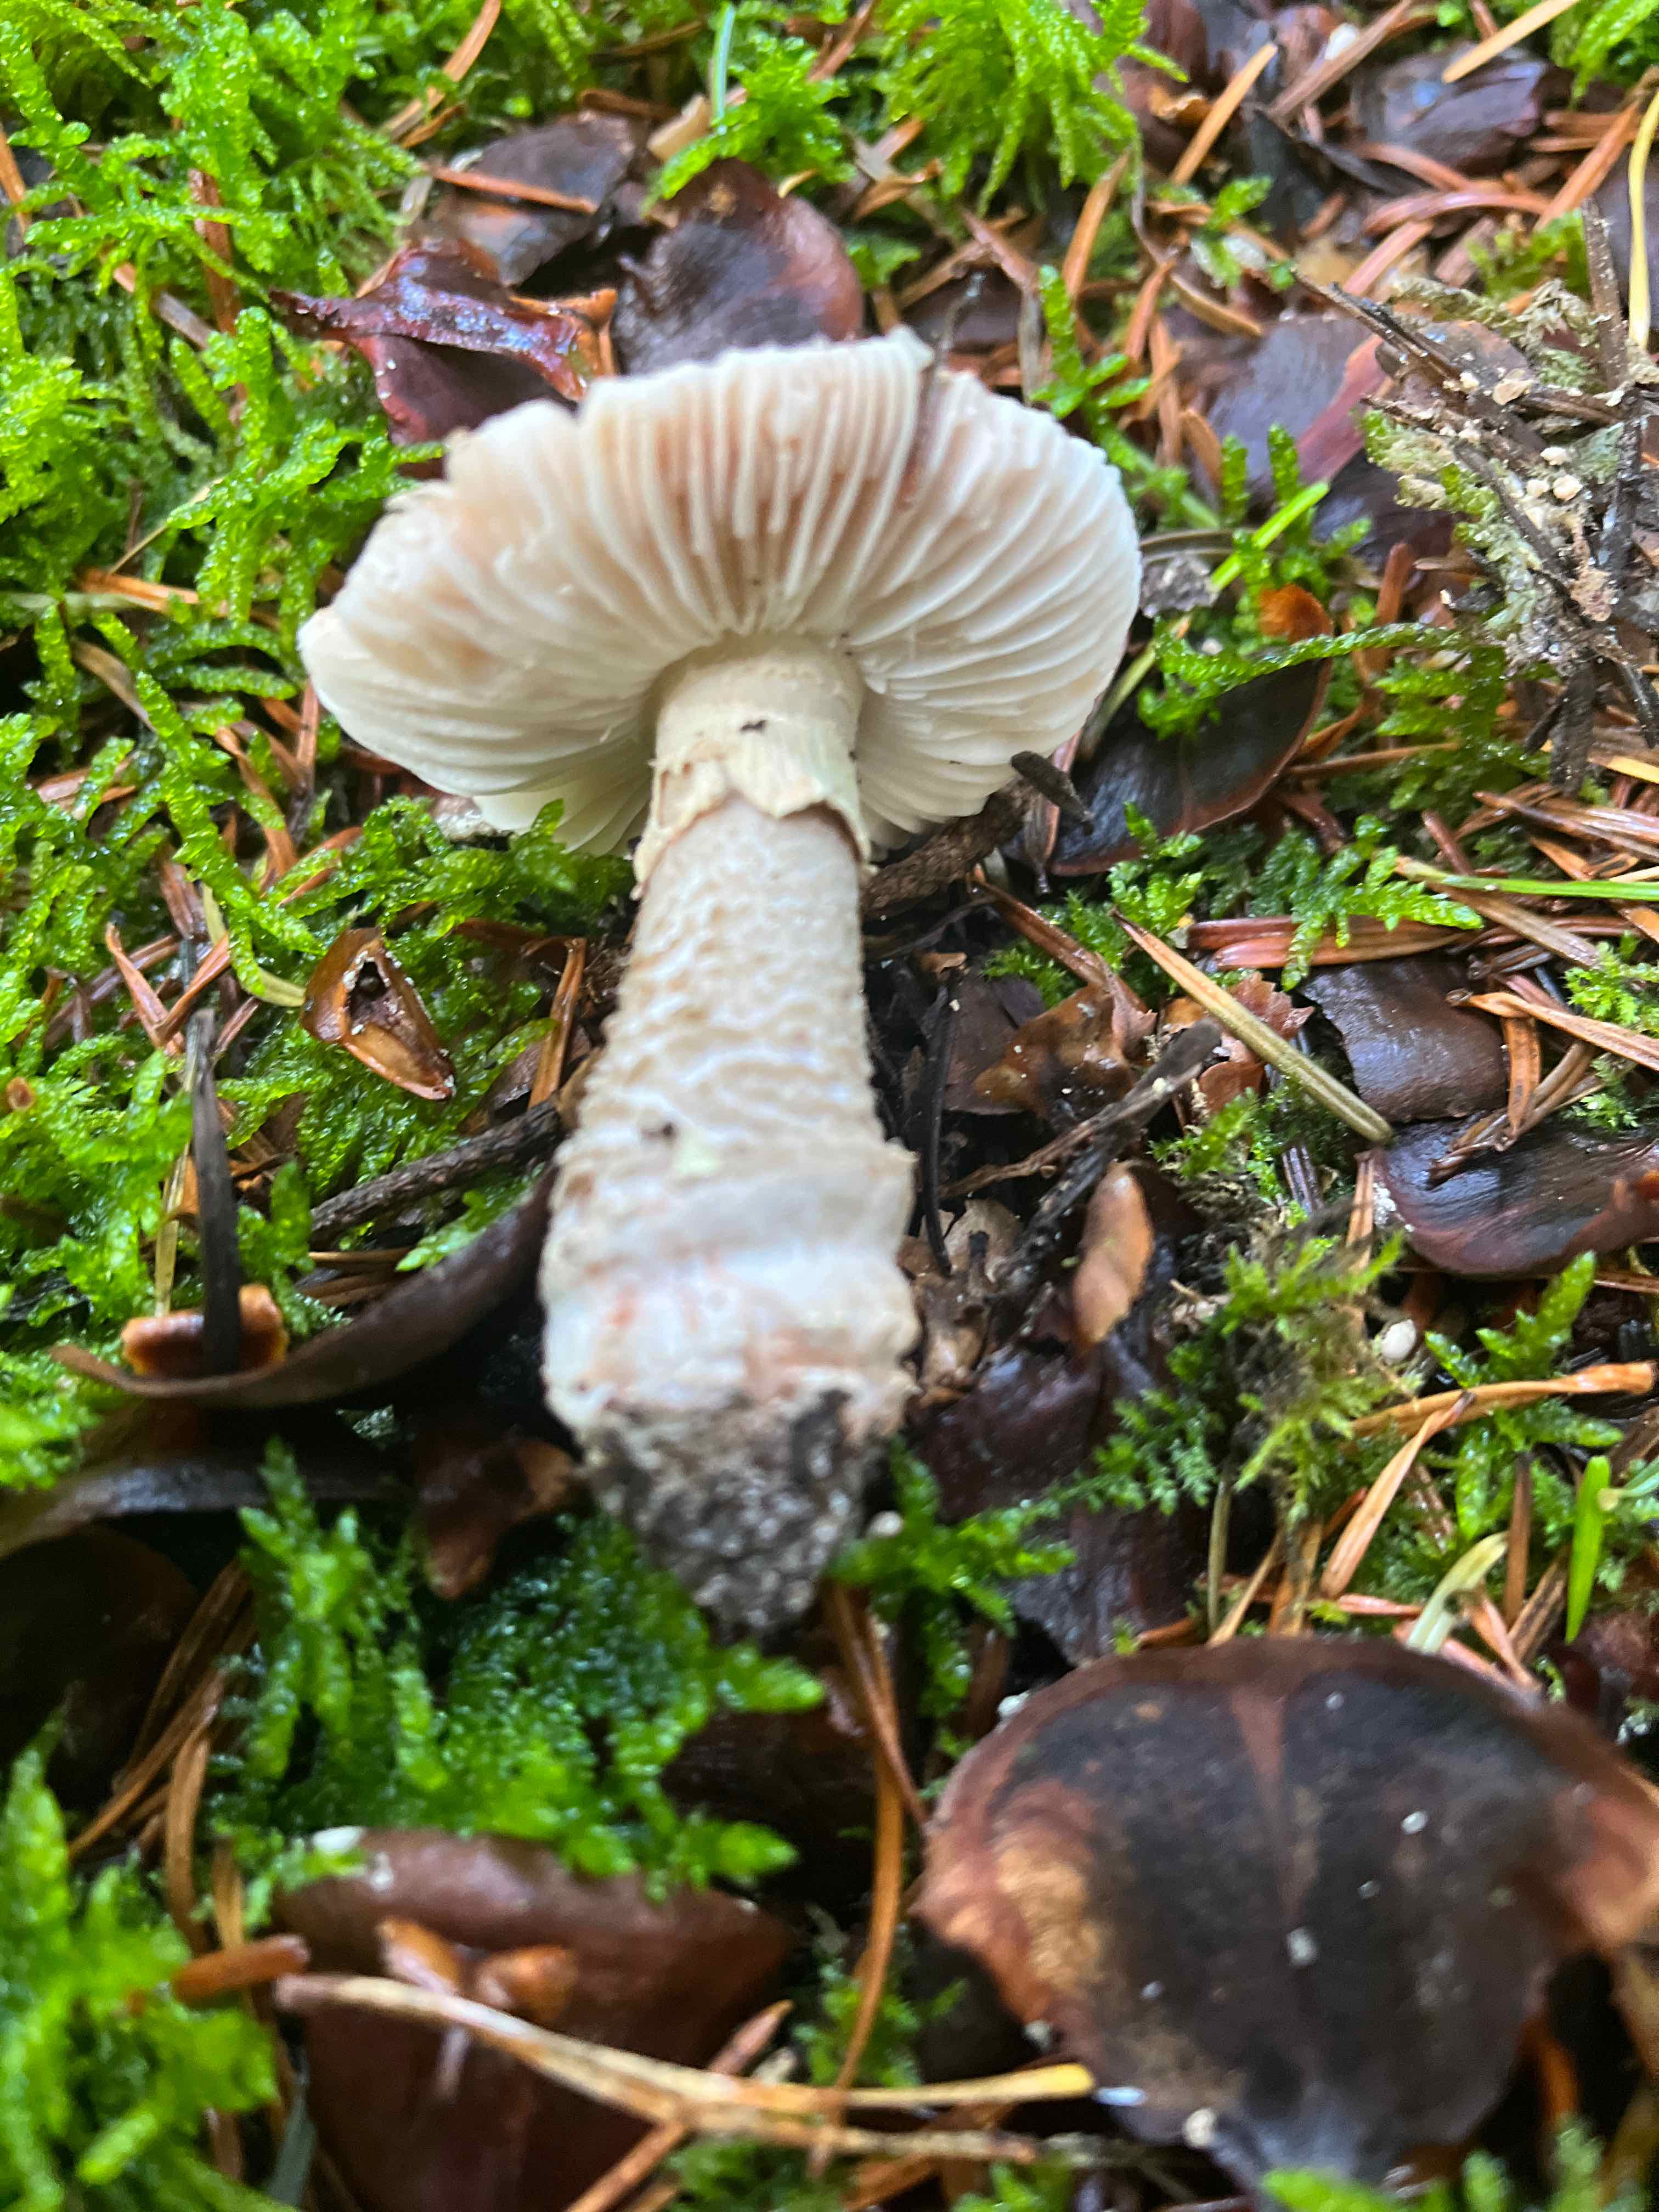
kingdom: Fungi
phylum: Basidiomycota
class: Agaricomycetes
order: Agaricales
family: Amanitaceae
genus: Amanita
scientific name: Amanita
